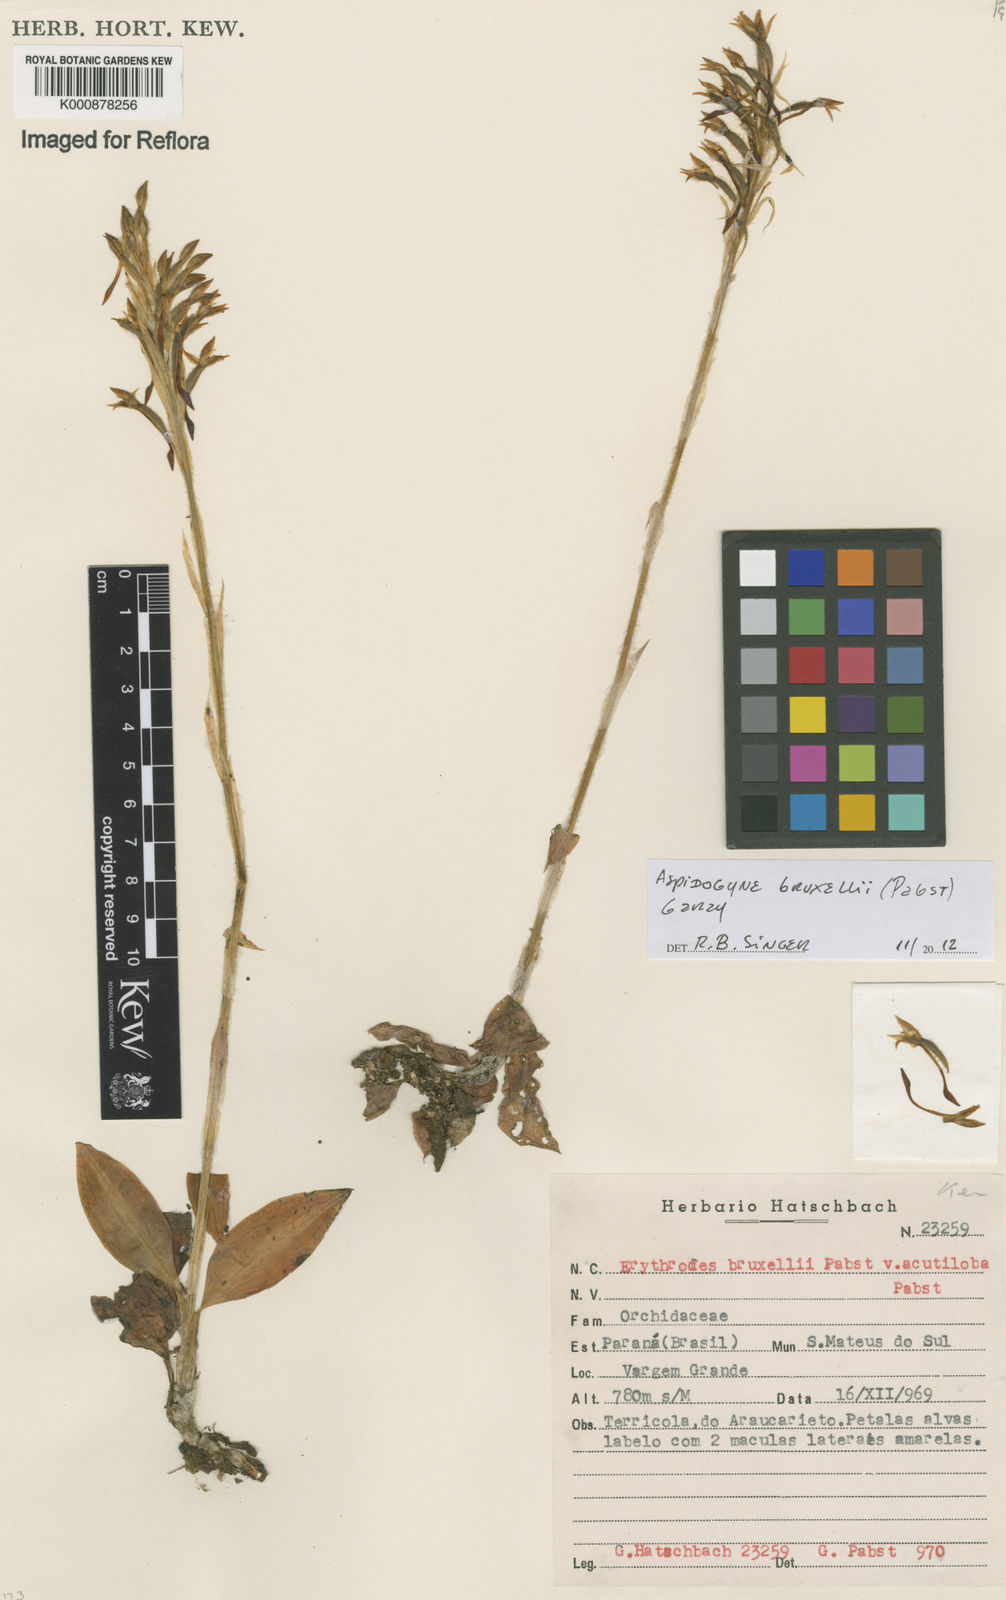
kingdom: Plantae
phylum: Tracheophyta
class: Liliopsida
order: Asparagales
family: Orchidaceae
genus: Aspidogyne
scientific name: Aspidogyne bruxelii
